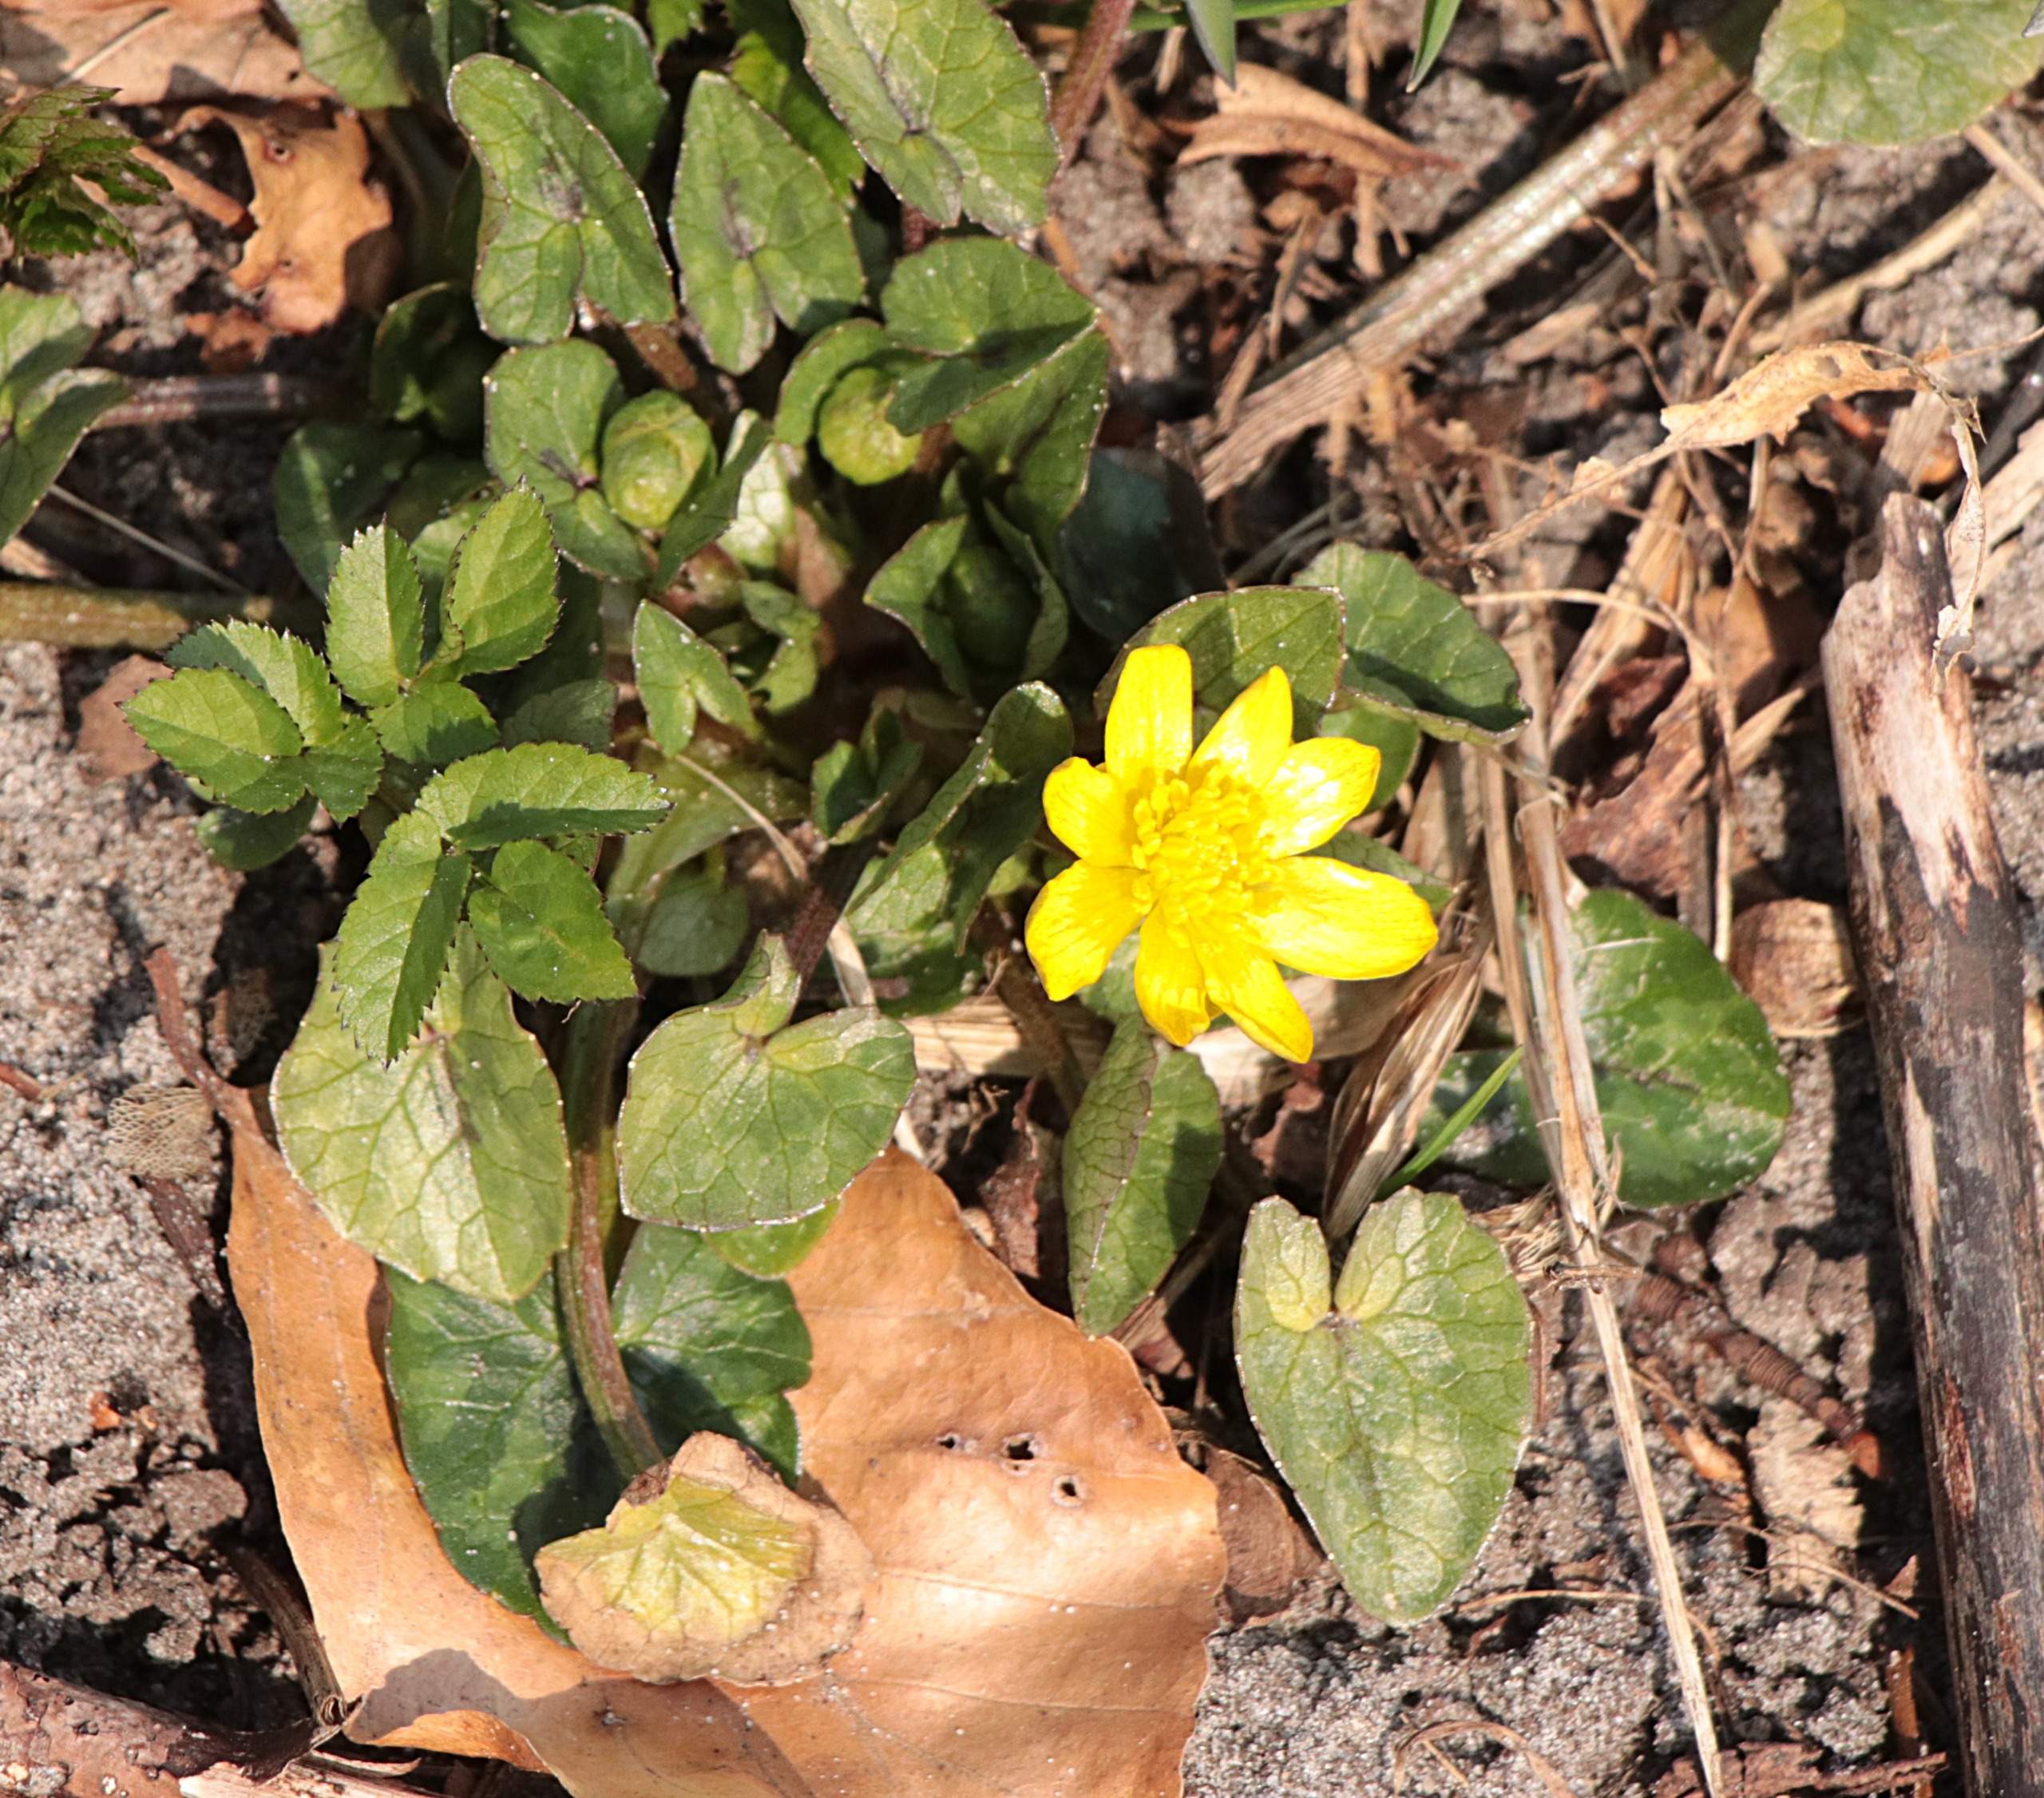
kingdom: Plantae
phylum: Tracheophyta
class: Magnoliopsida
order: Ranunculales
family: Ranunculaceae
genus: Ficaria
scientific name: Ficaria verna
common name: Vorterod
